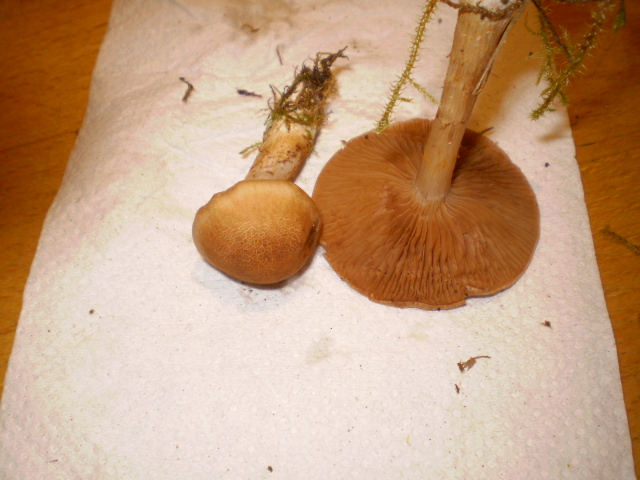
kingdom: Fungi
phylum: Basidiomycota
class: Agaricomycetes
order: Agaricales
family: Cortinariaceae
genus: Cortinarius
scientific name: Cortinarius caninus
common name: gran-slørhat
